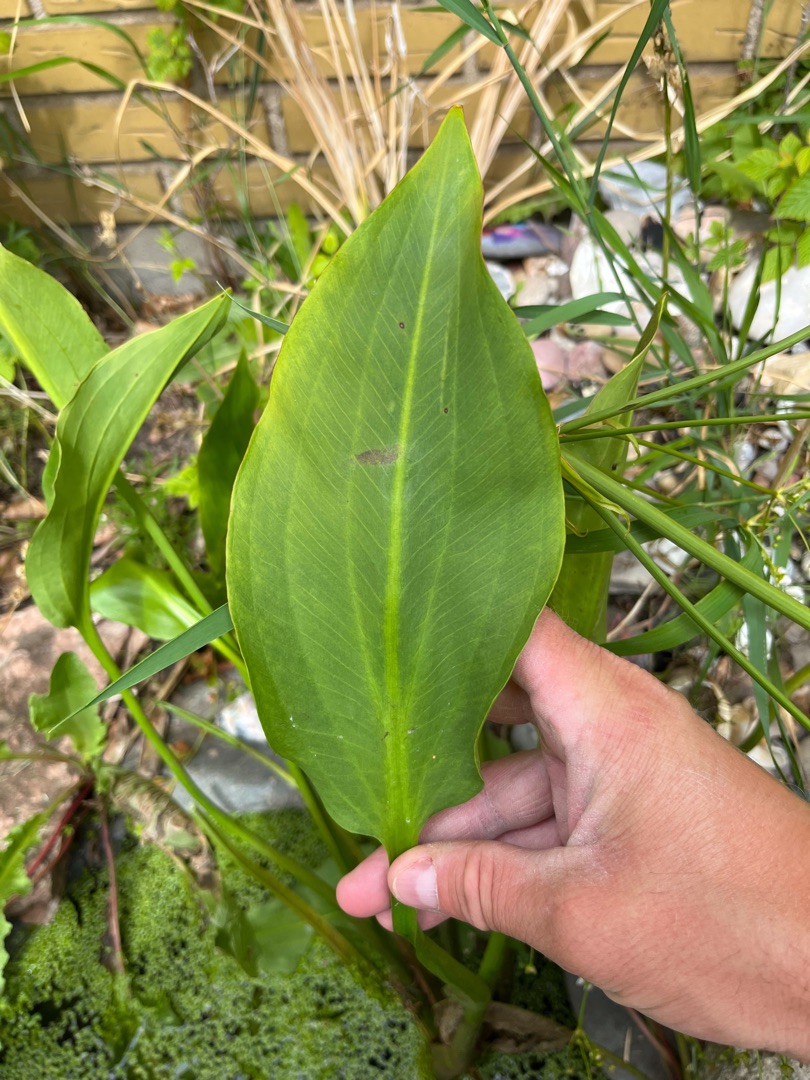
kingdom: Plantae
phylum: Tracheophyta
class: Liliopsida
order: Alismatales
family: Alismataceae
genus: Alisma
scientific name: Alisma plantago-aquatica
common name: Vejbred-skeblad
